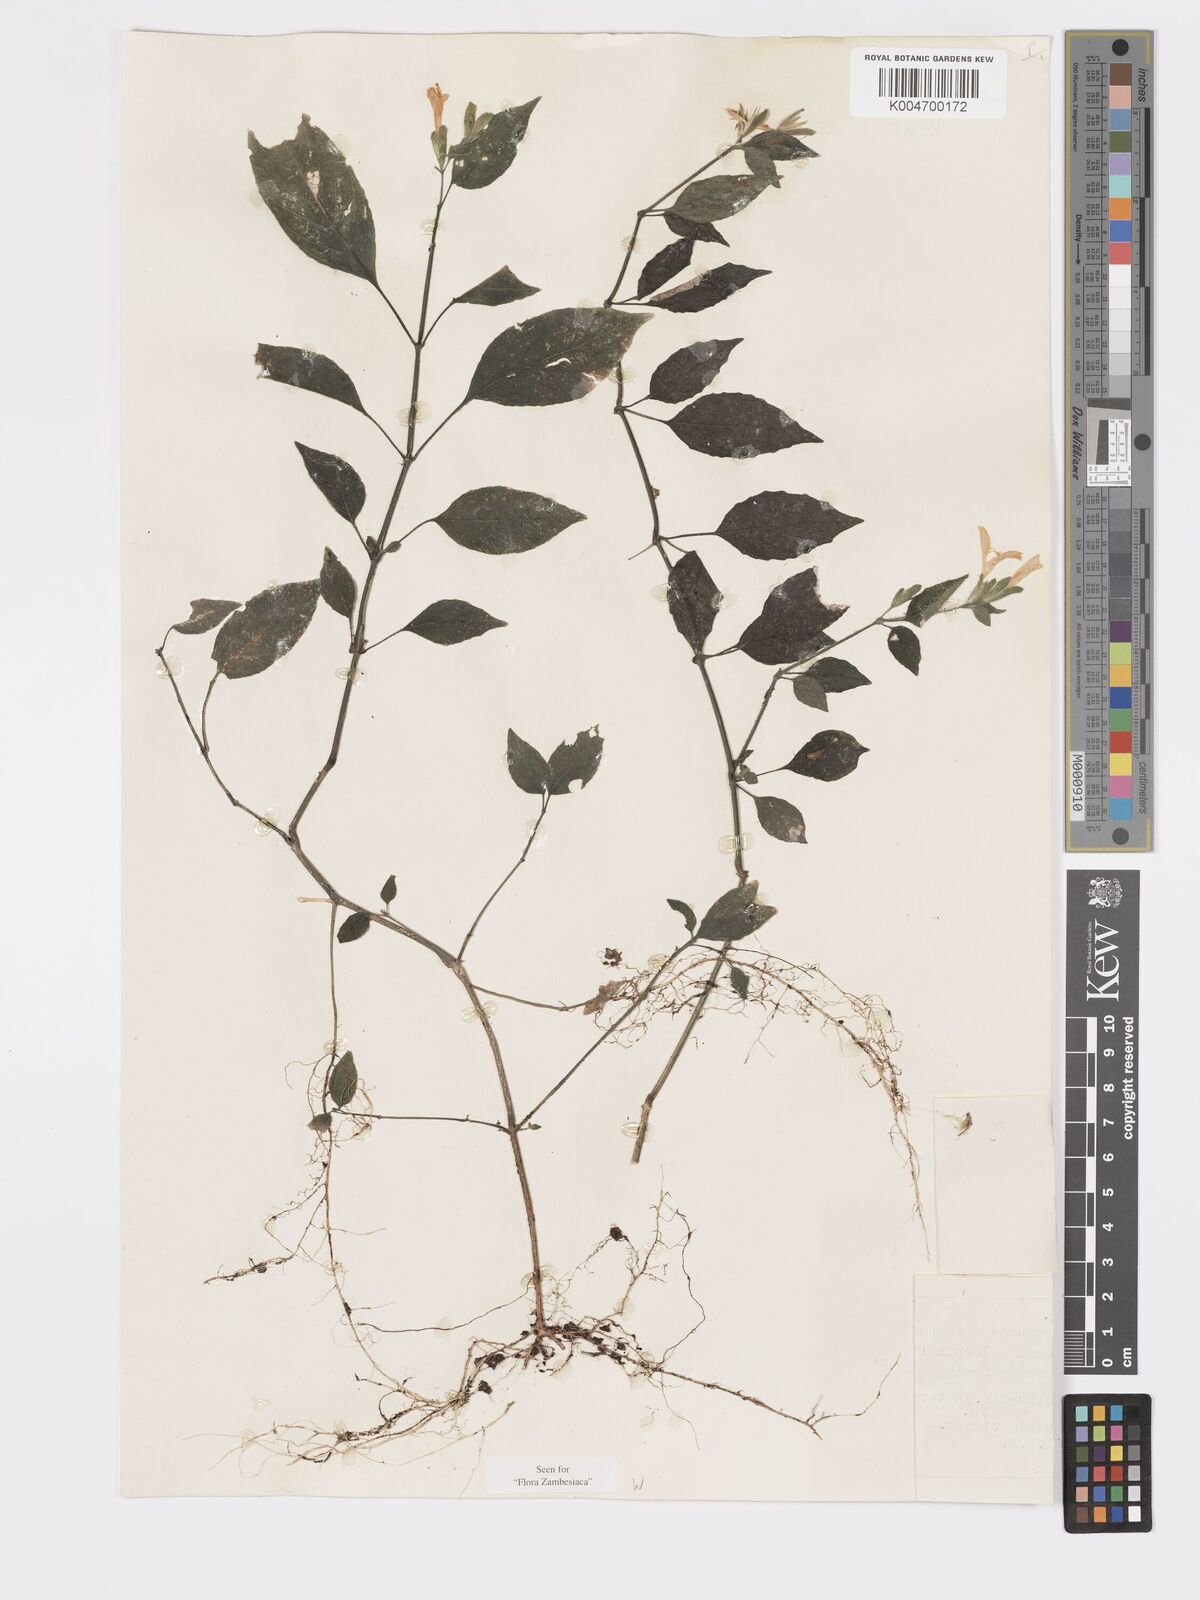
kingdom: Plantae
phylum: Tracheophyta
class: Magnoliopsida
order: Lamiales
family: Acanthaceae
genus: Hypoestes
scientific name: Hypoestes triflora
